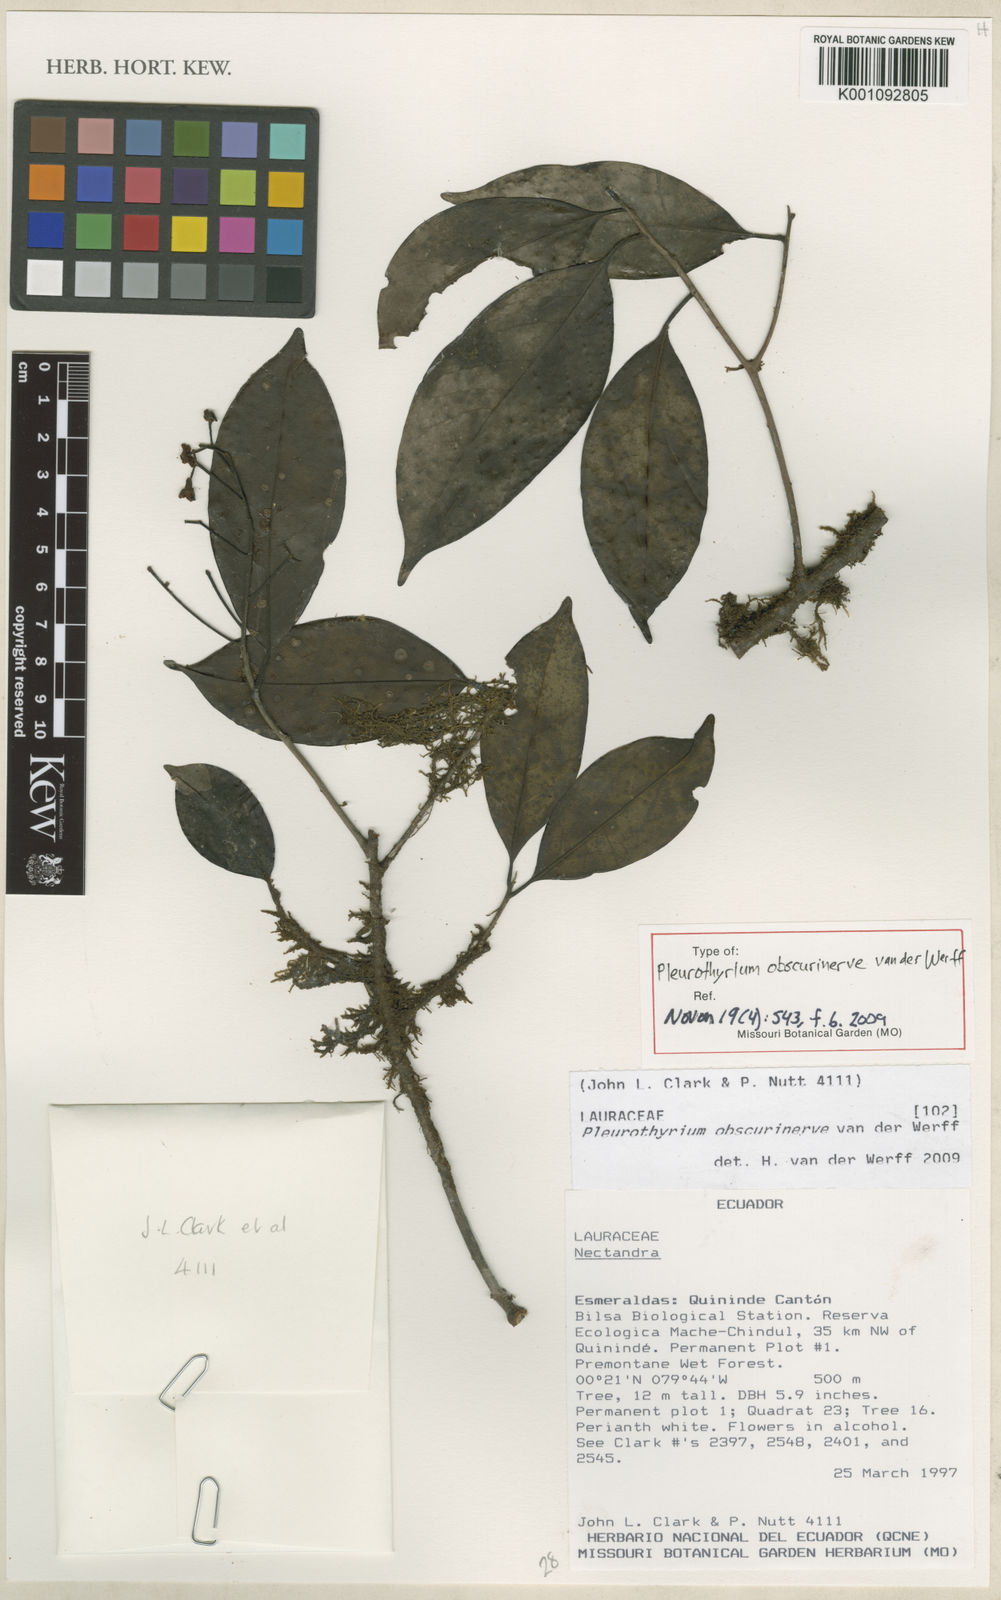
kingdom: Plantae
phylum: Tracheophyta
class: Magnoliopsida
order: Laurales
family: Lauraceae
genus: Pleurothyrium
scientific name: Pleurothyrium obscurinerve
